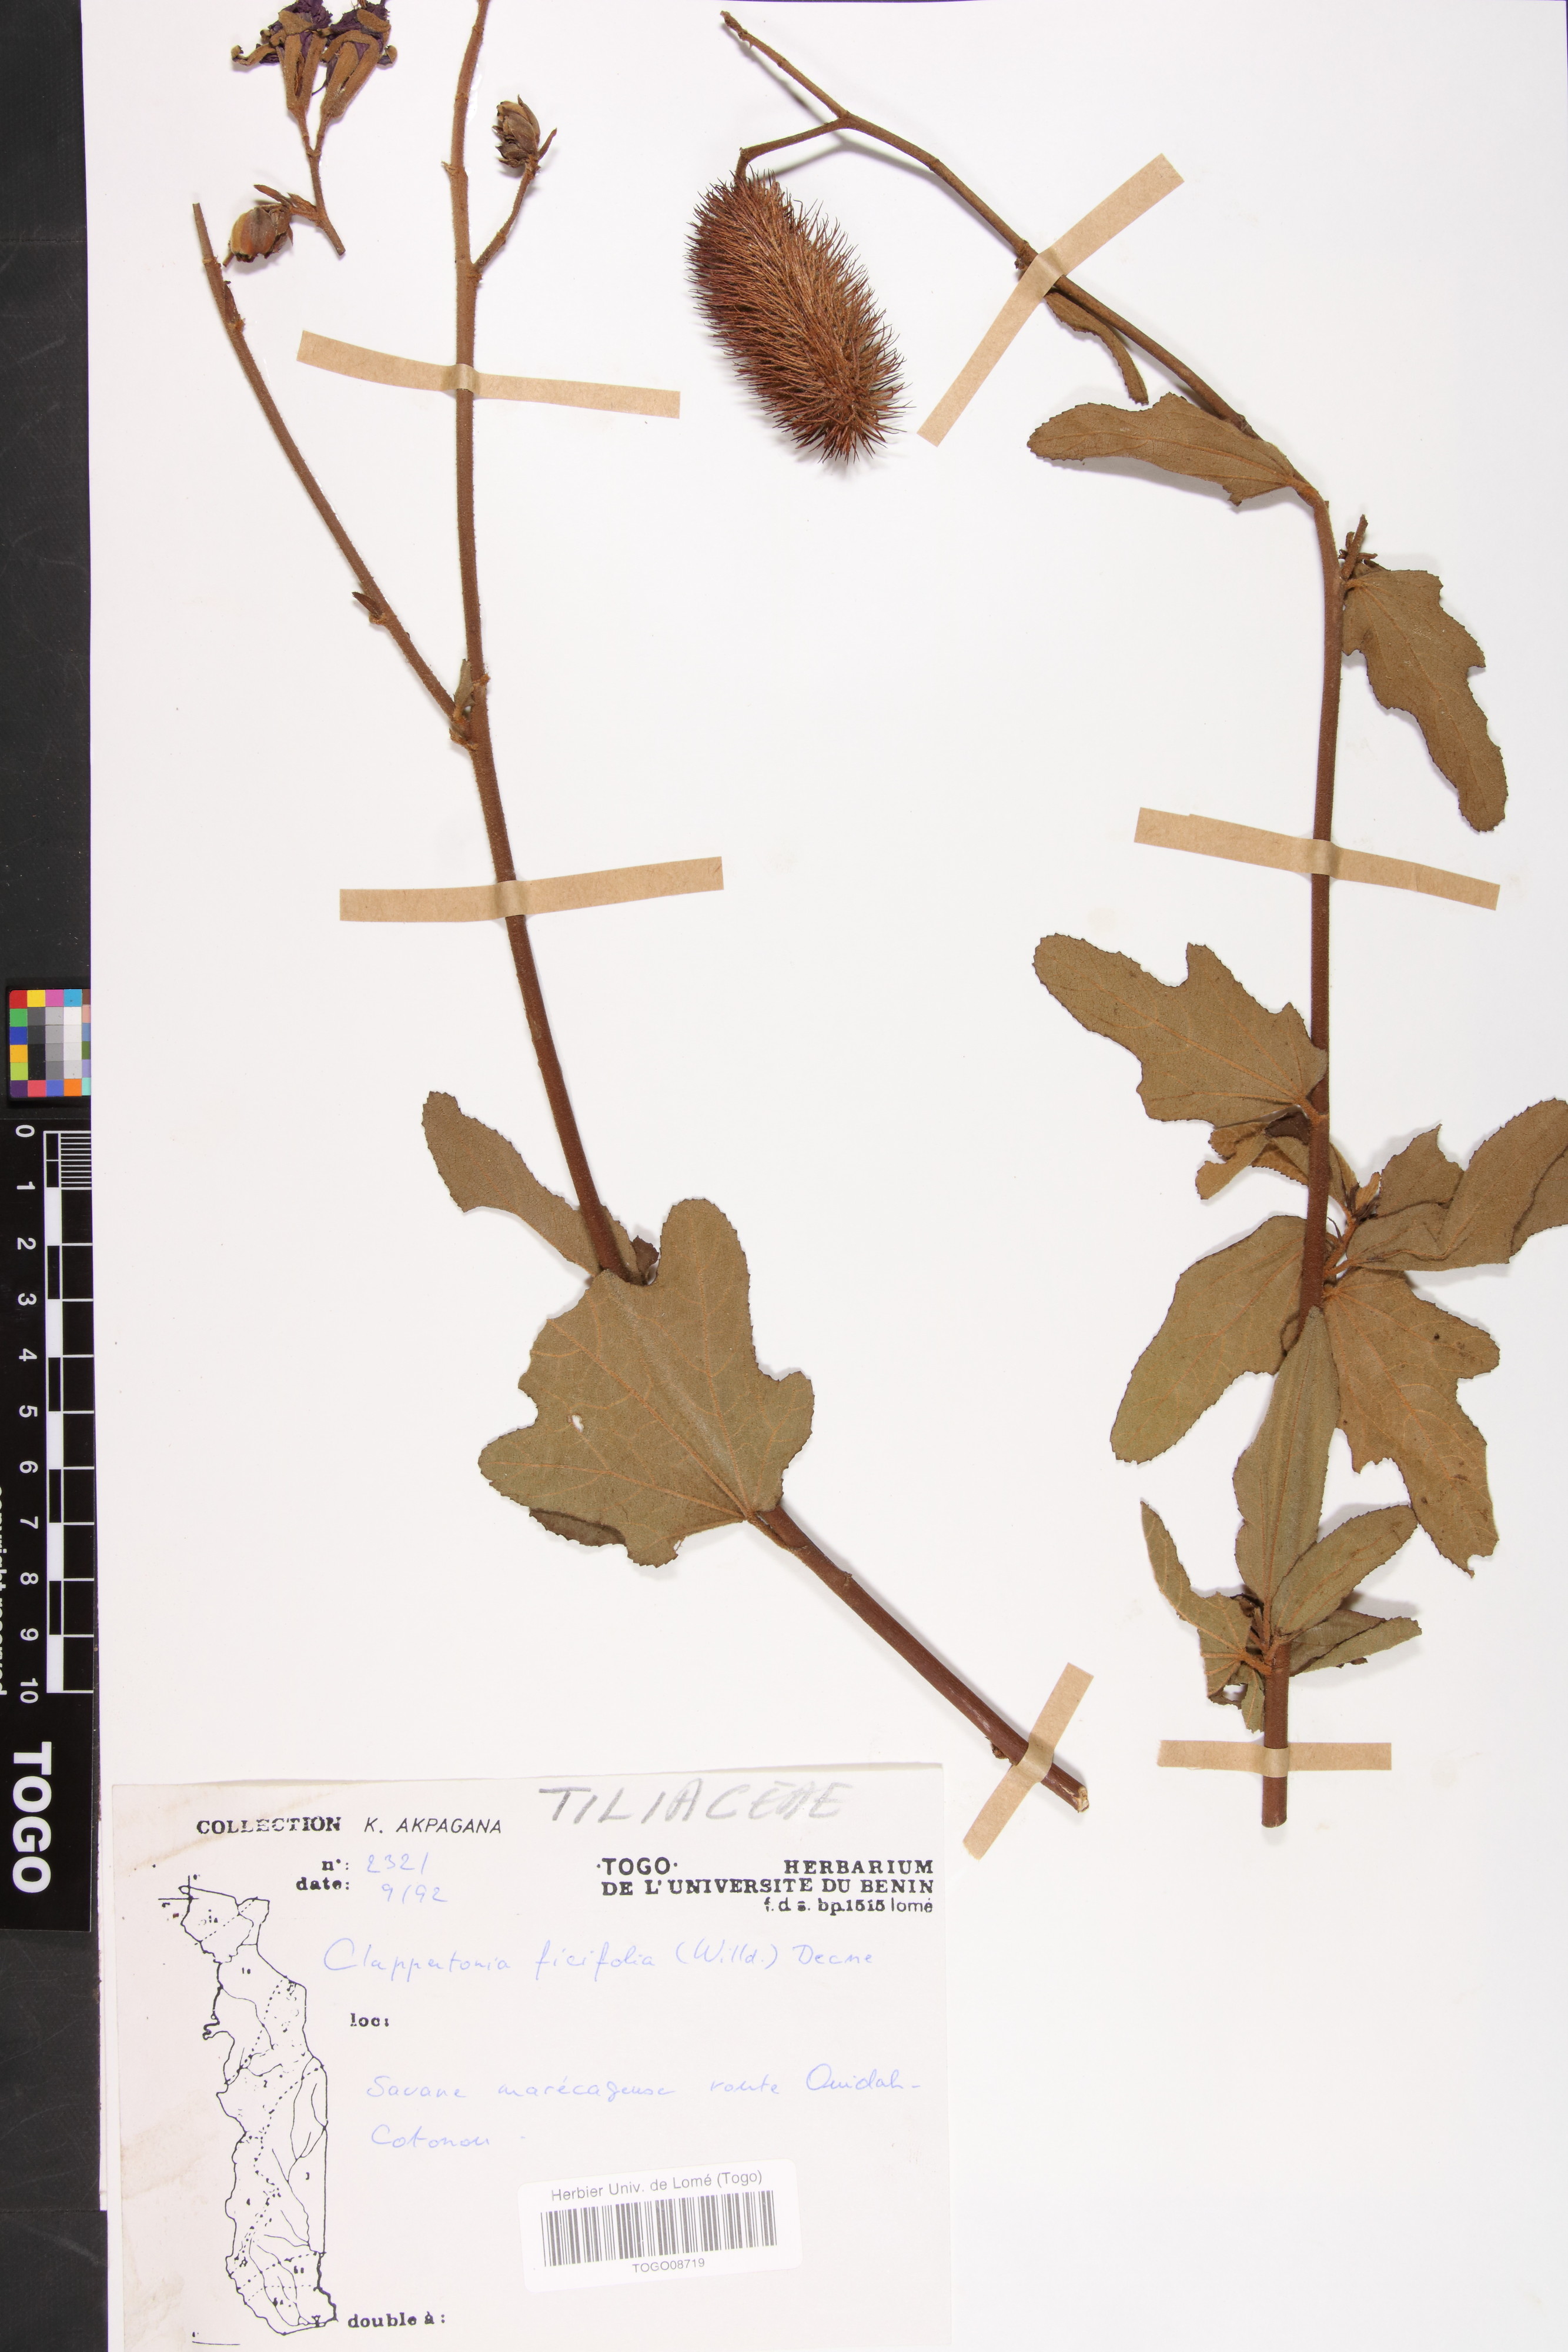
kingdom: Plantae
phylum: Tracheophyta
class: Magnoliopsida
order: Malvales
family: Malvaceae
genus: Clappertonia
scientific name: Clappertonia ficifolia
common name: Bolo-bolo
